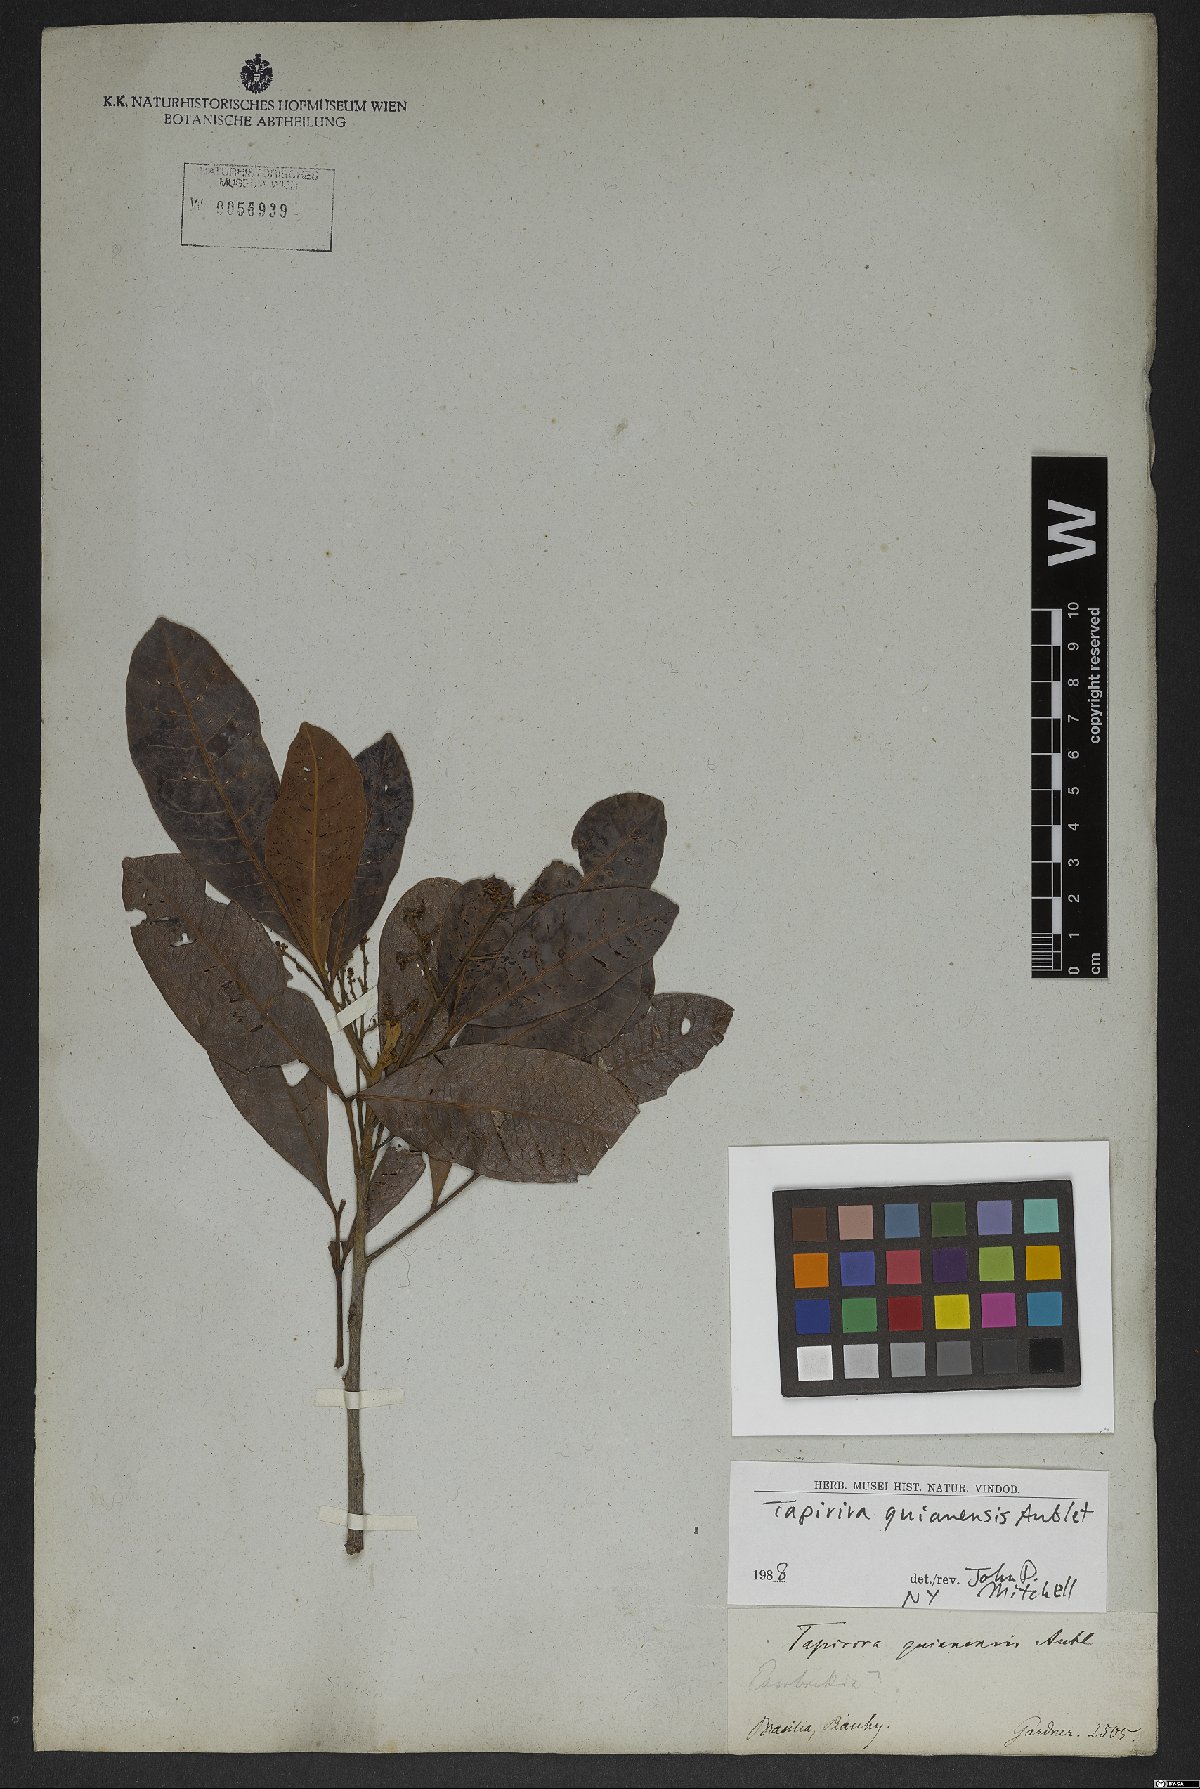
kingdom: Plantae
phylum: Tracheophyta
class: Magnoliopsida
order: Sapindales
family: Anacardiaceae
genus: Tapirira
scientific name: Tapirira guianensis
